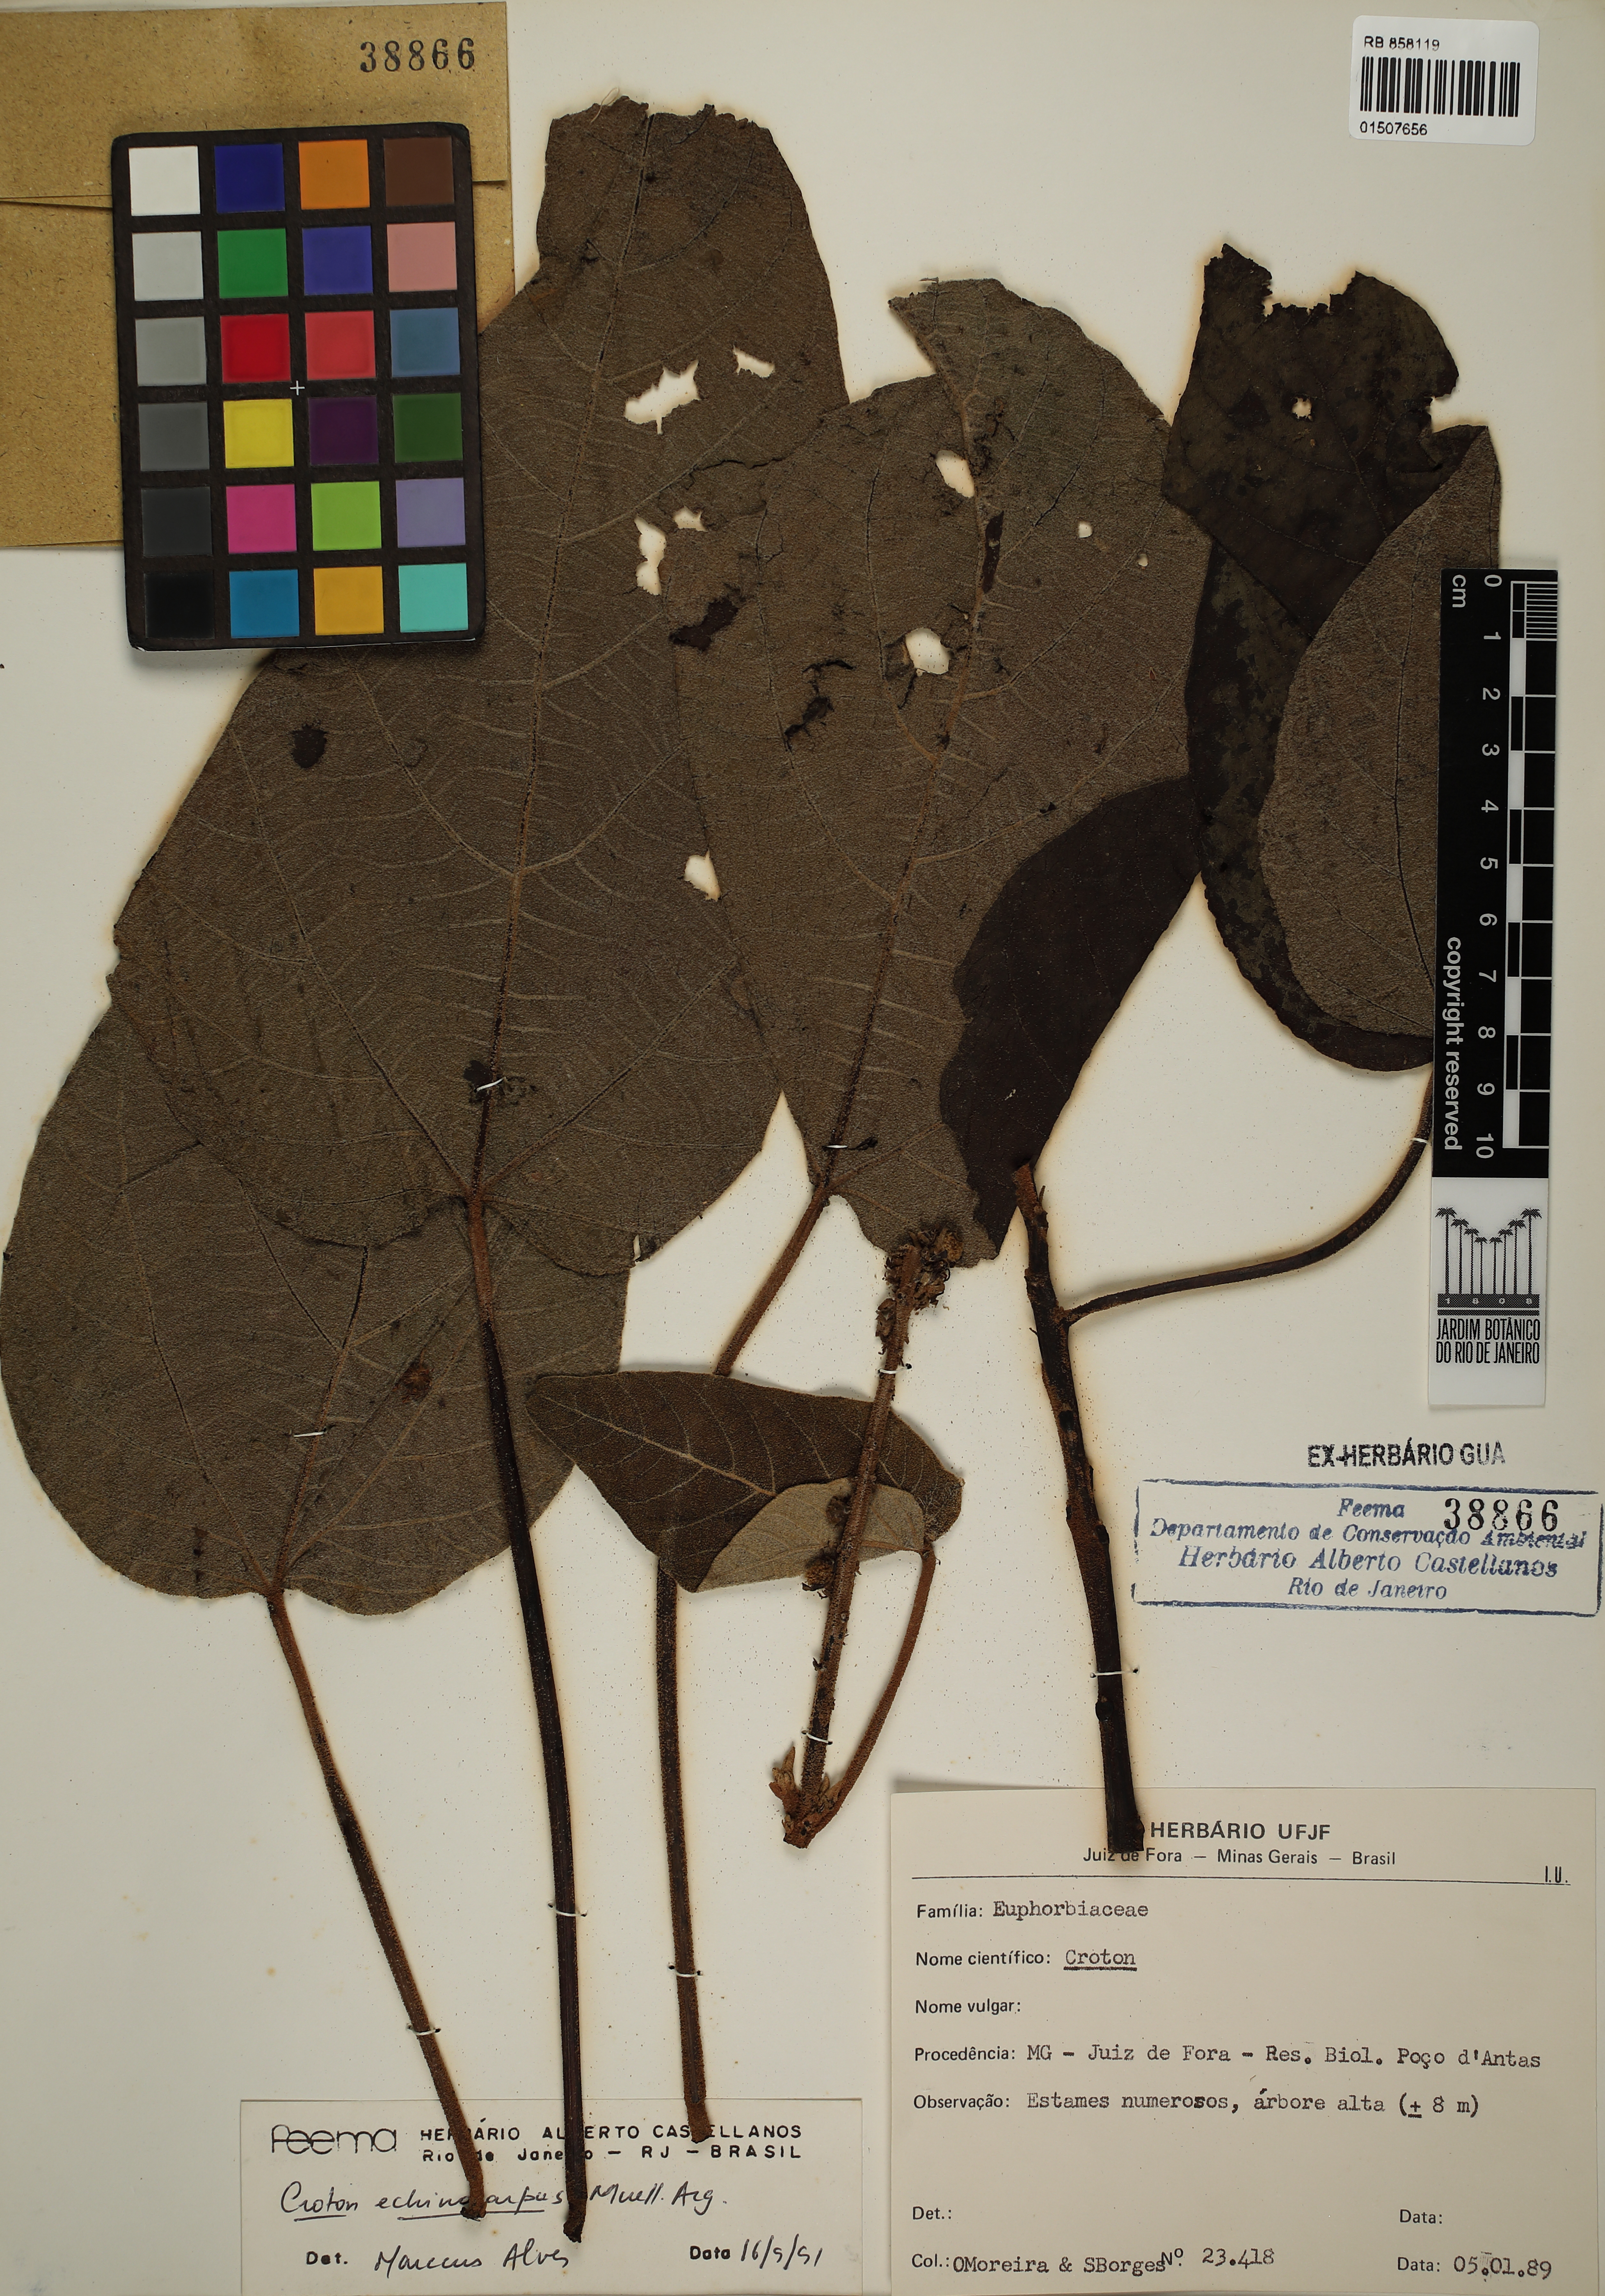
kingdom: Plantae
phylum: Tracheophyta
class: Magnoliopsida
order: Malpighiales
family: Euphorbiaceae
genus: Croton
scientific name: Croton verrucosus
